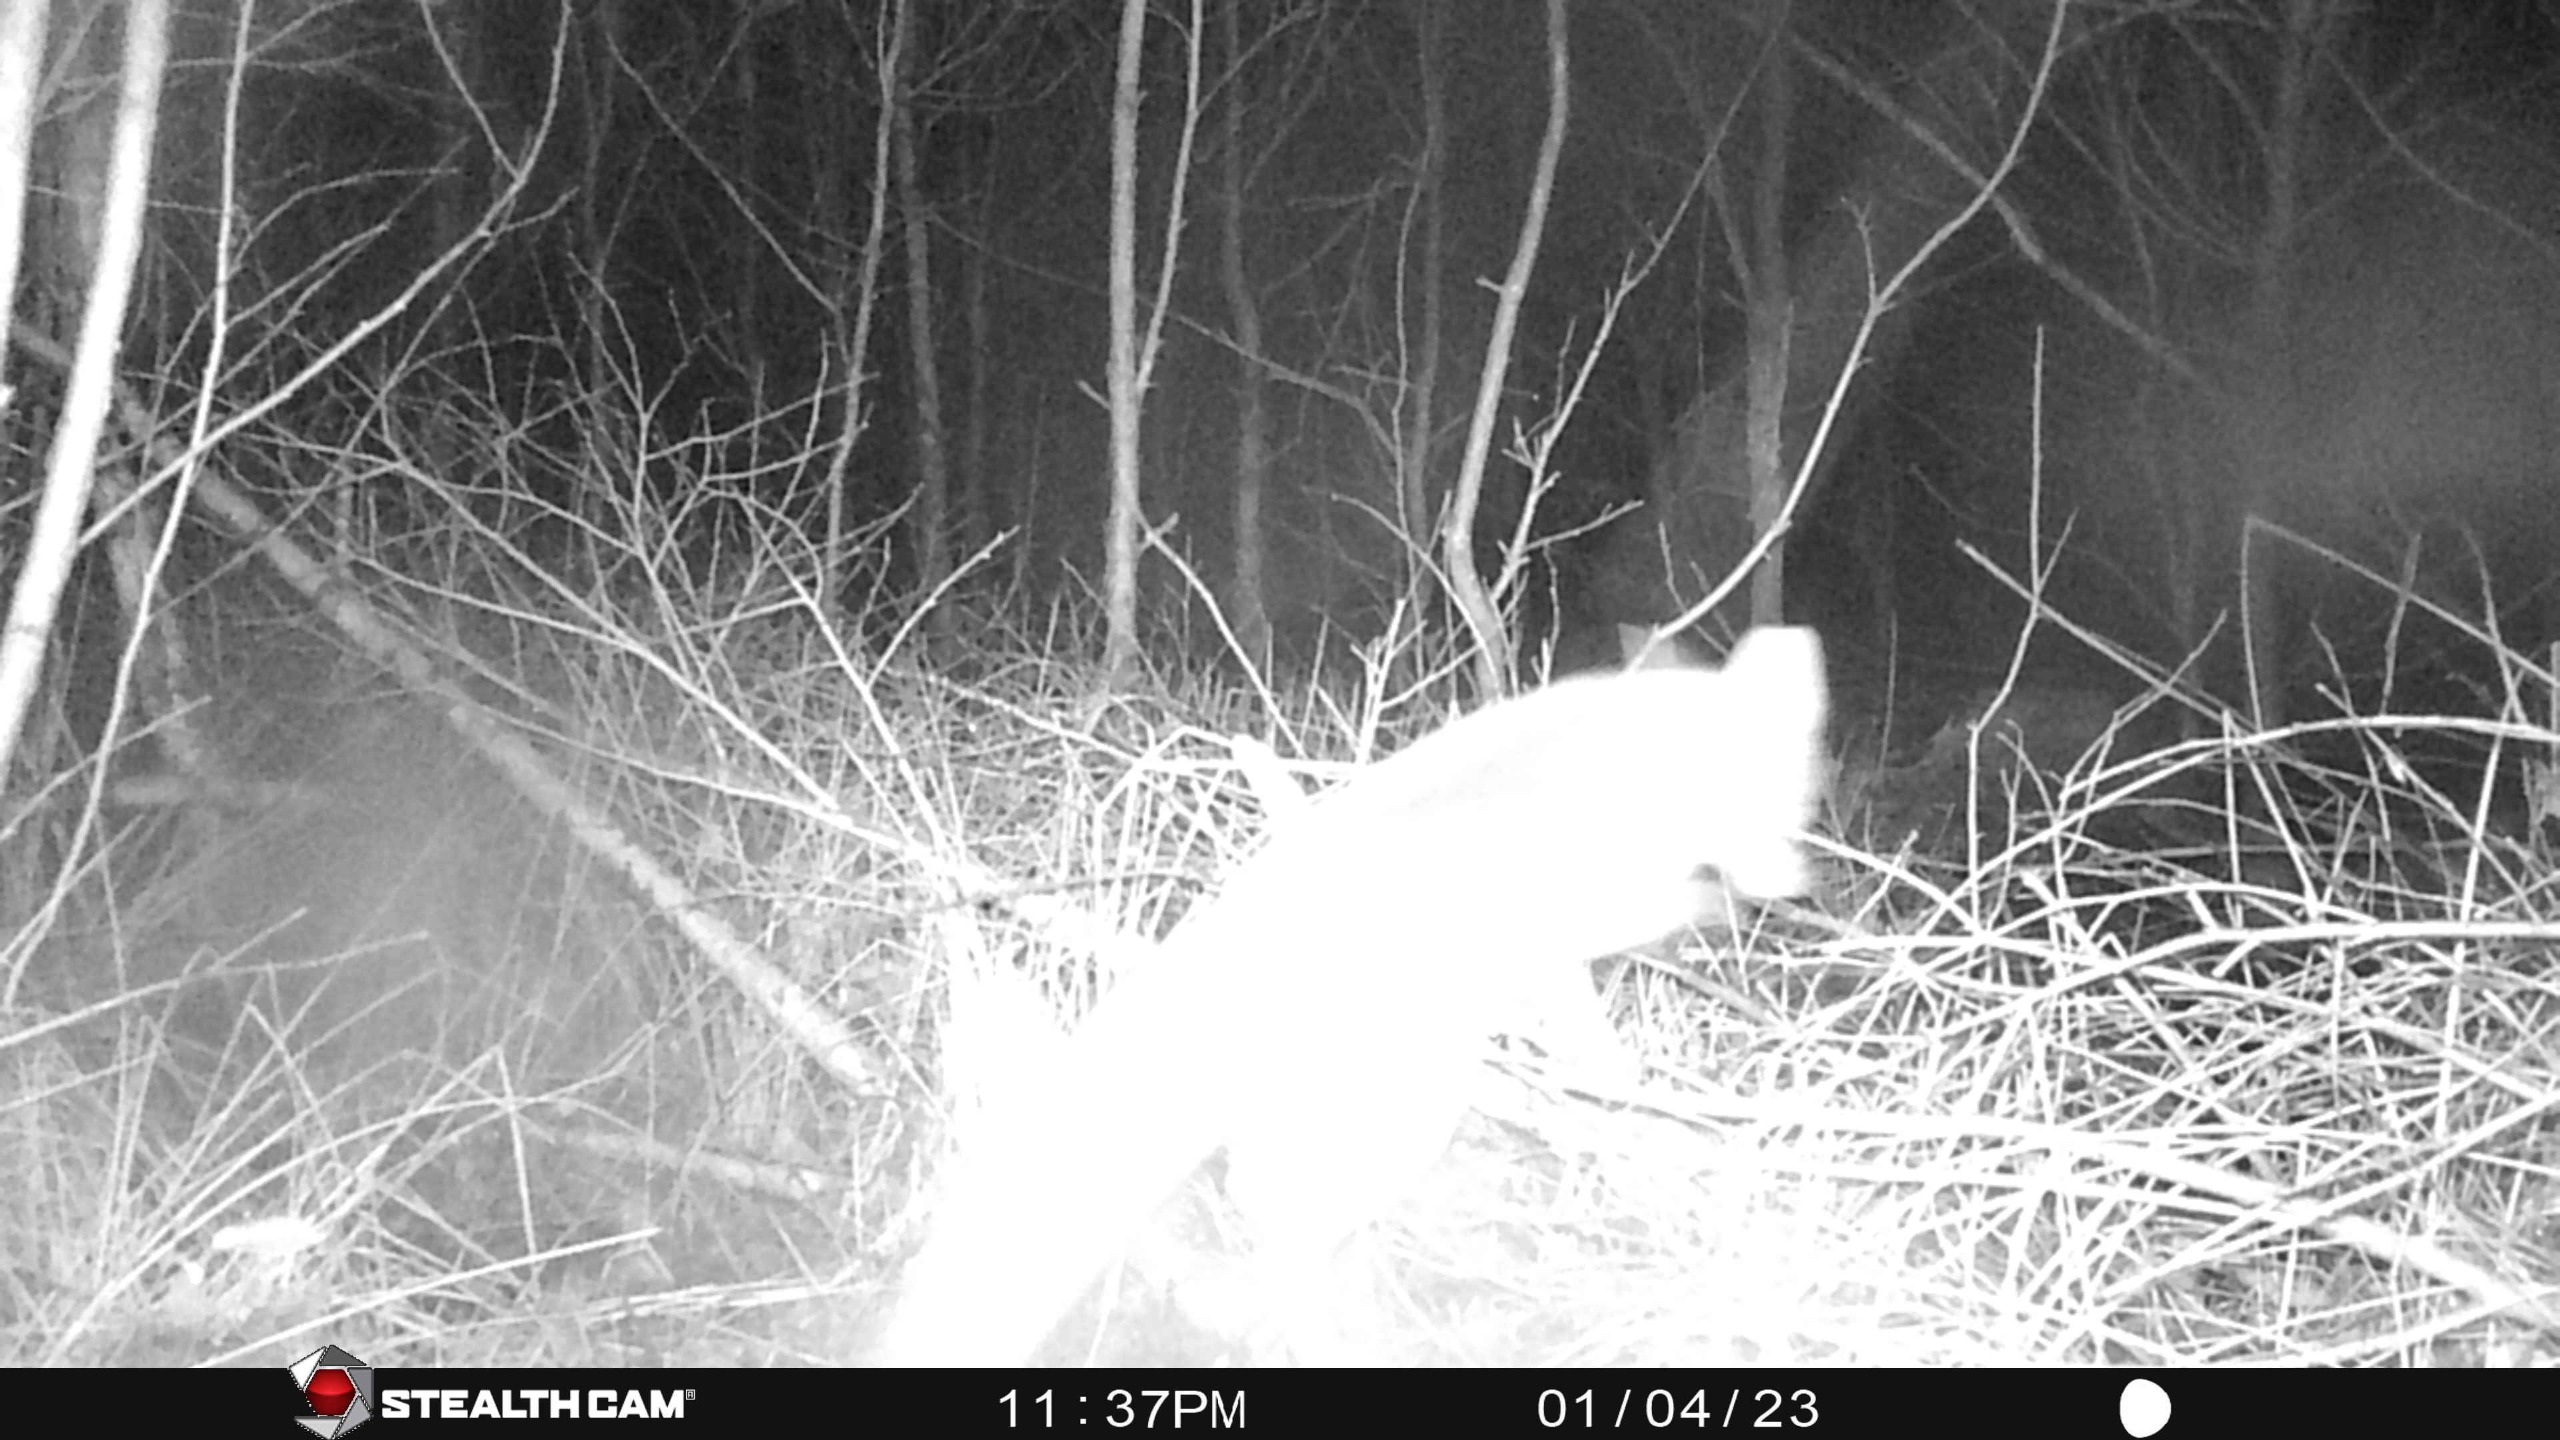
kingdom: Animalia
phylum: Chordata
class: Mammalia
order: Carnivora
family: Canidae
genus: Vulpes
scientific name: Vulpes vulpes
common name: Ræv
